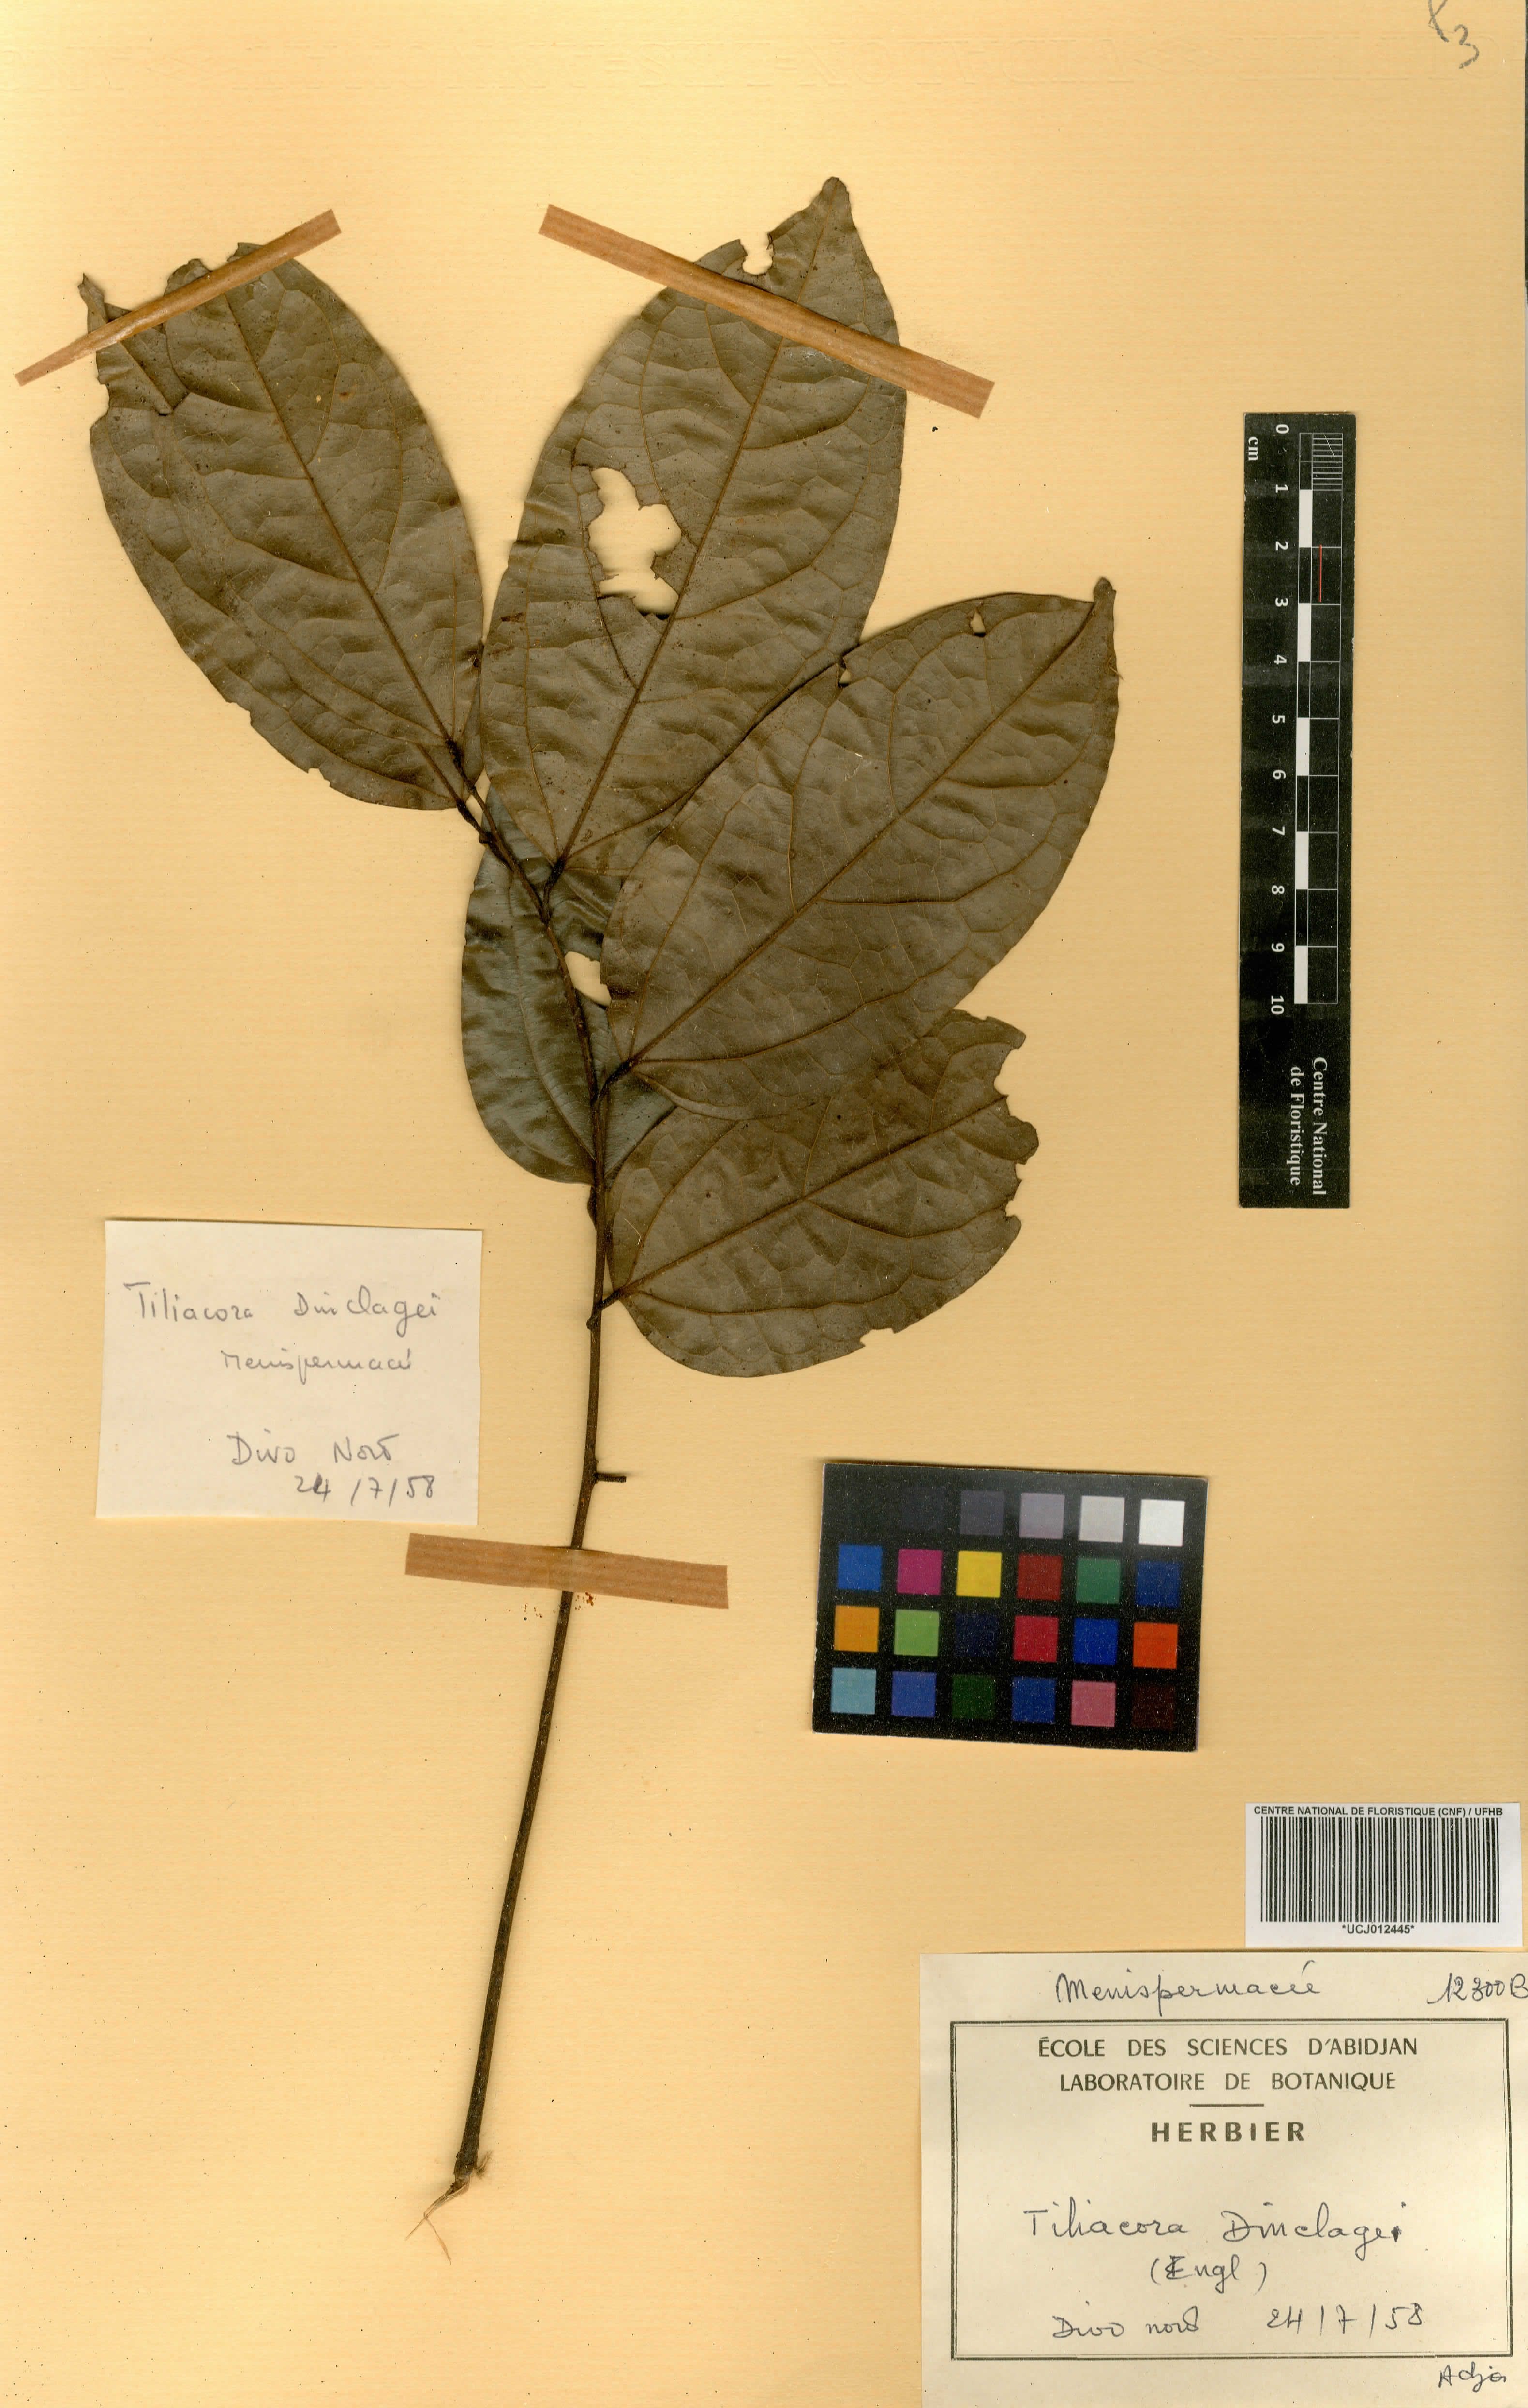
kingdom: Plantae
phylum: Tracheophyta
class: Magnoliopsida
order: Ranunculales
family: Menispermaceae
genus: Tiliacora
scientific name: Tiliacora dinklagei
